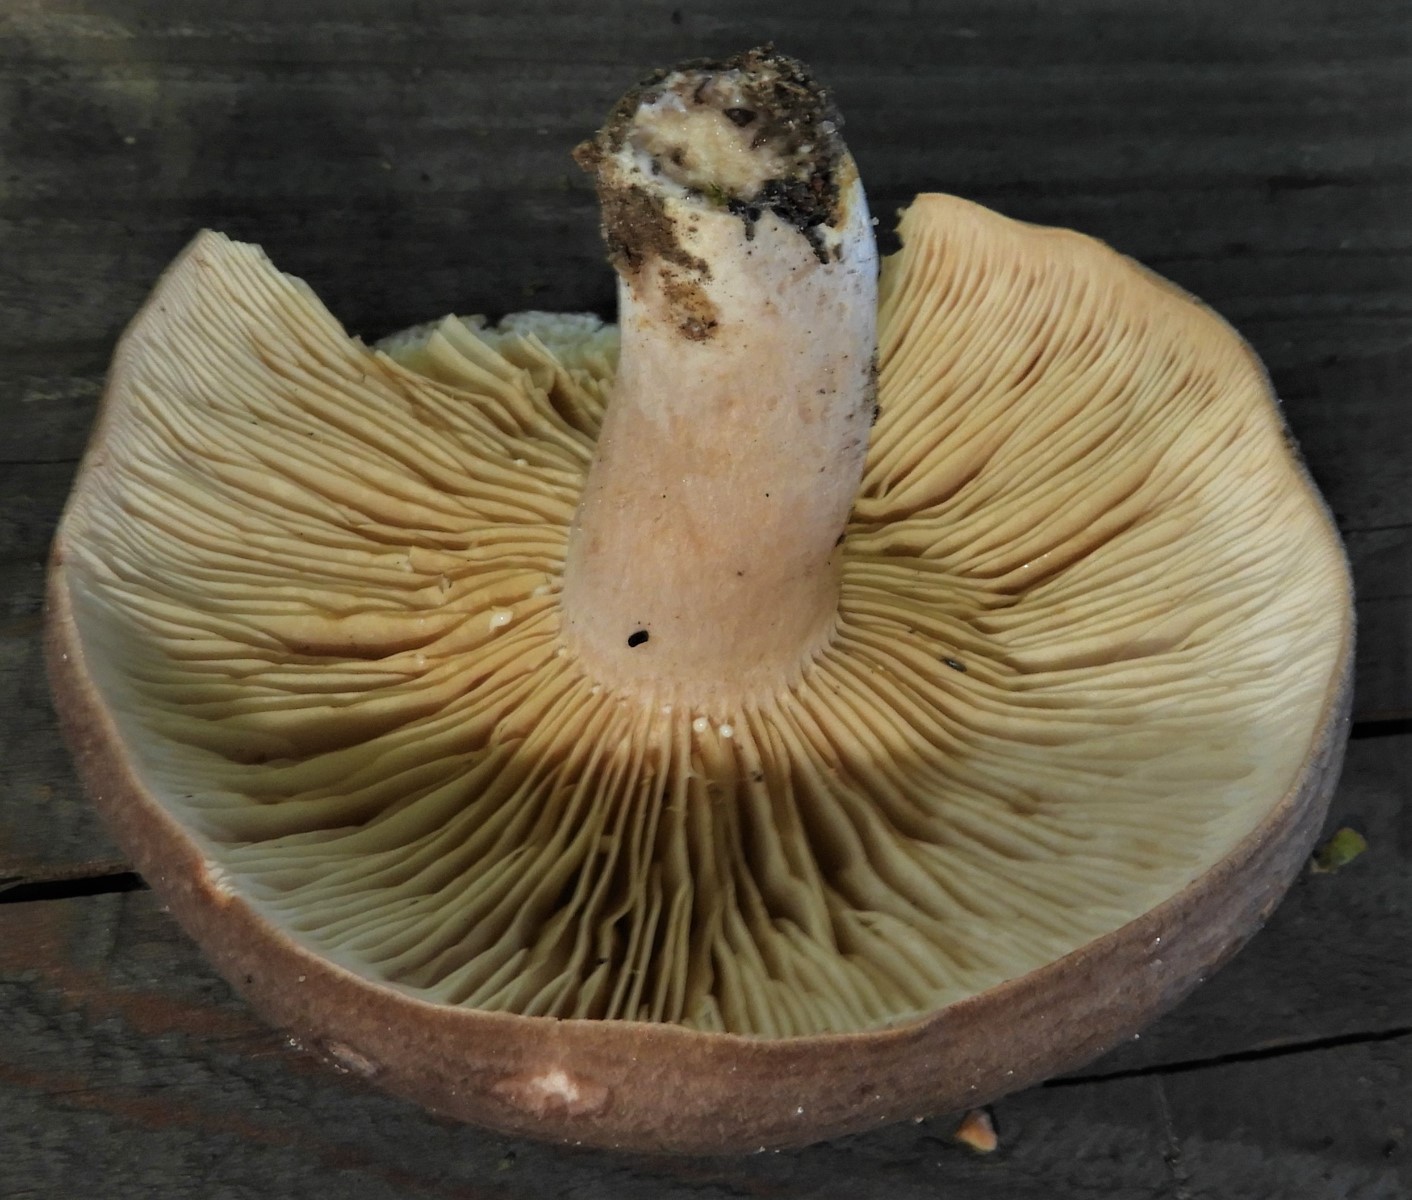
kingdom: Fungi
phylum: Basidiomycota
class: Agaricomycetes
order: Russulales
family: Russulaceae
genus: Lactarius
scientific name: Lactarius circellatus
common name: avnbøg-mælkehat
